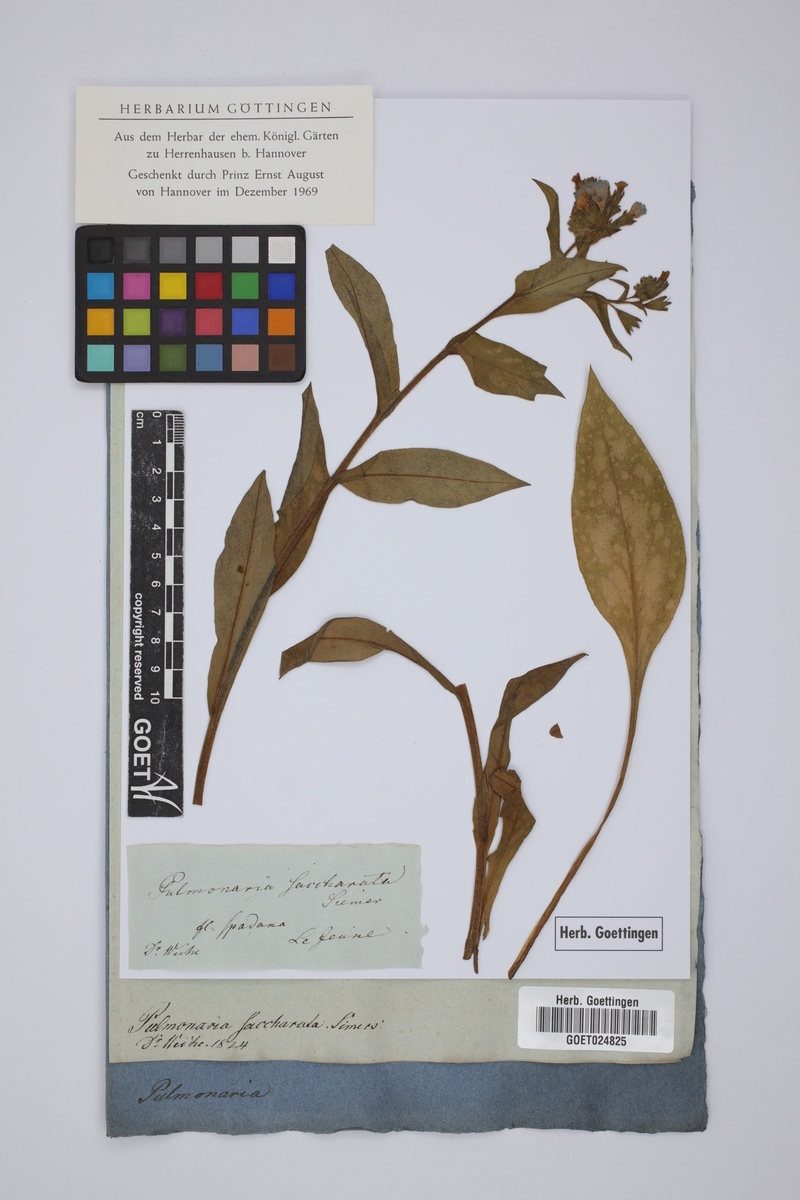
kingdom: Plantae
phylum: Tracheophyta
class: Magnoliopsida
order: Boraginales
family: Boraginaceae
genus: Pulmonaria
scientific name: Pulmonaria saccharata
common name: Bethlehem lungwort
